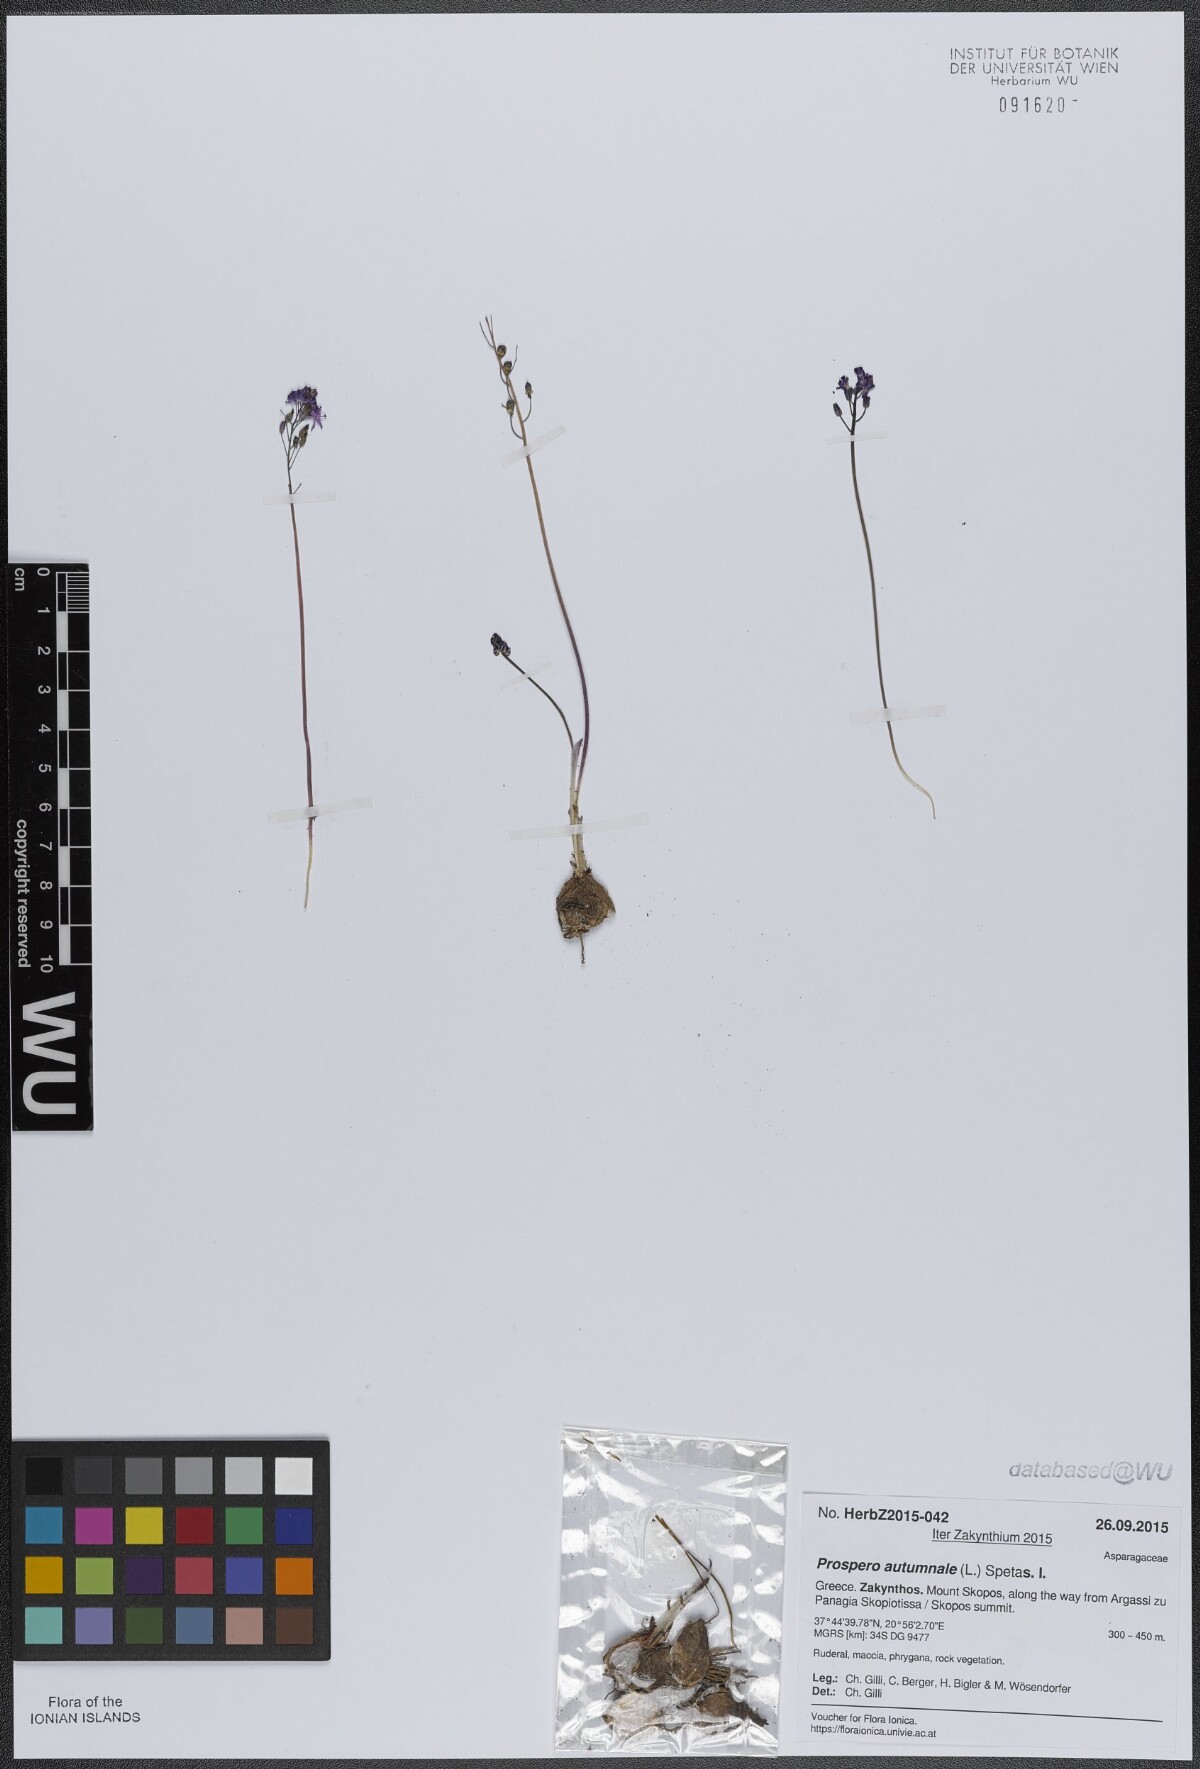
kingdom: Plantae
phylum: Tracheophyta
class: Liliopsida
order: Asparagales
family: Asparagaceae
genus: Prospero
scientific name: Prospero autumnale
